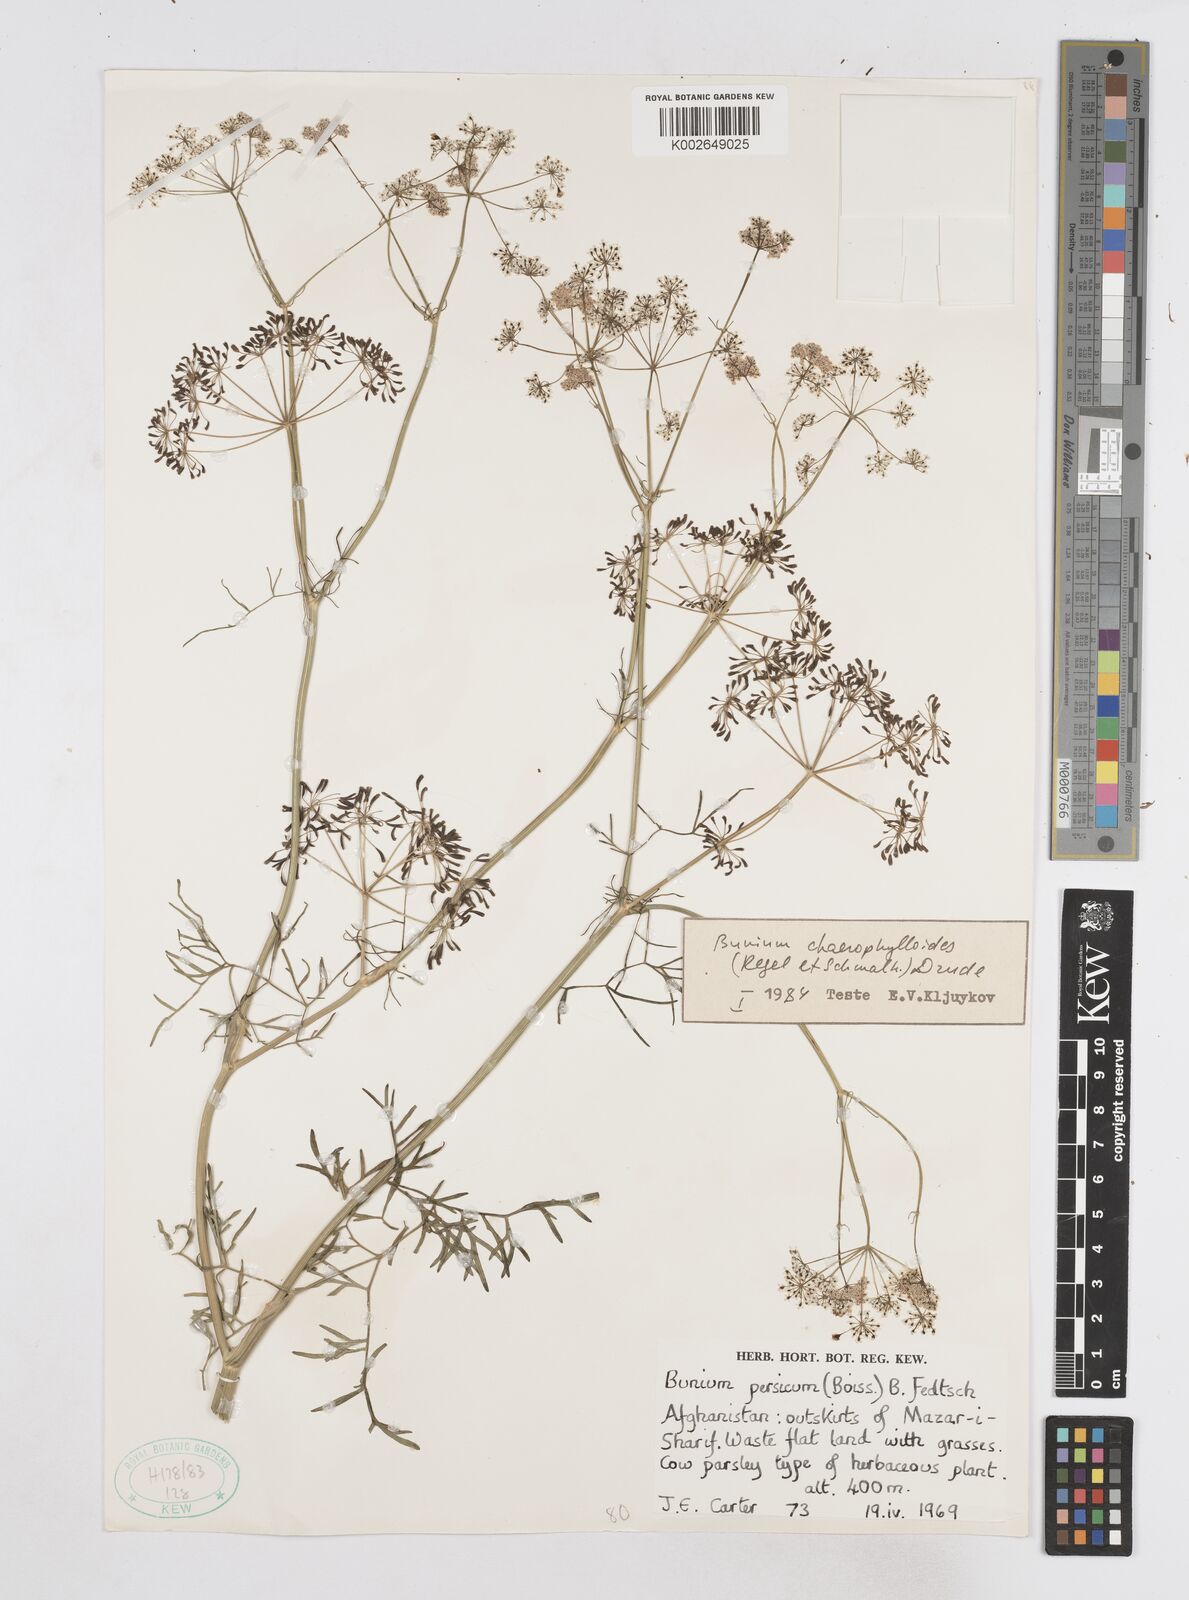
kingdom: Plantae
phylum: Tracheophyta
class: Magnoliopsida
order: Apiales
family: Apiaceae
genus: Elwendia
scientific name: Elwendia chaerophylloides
